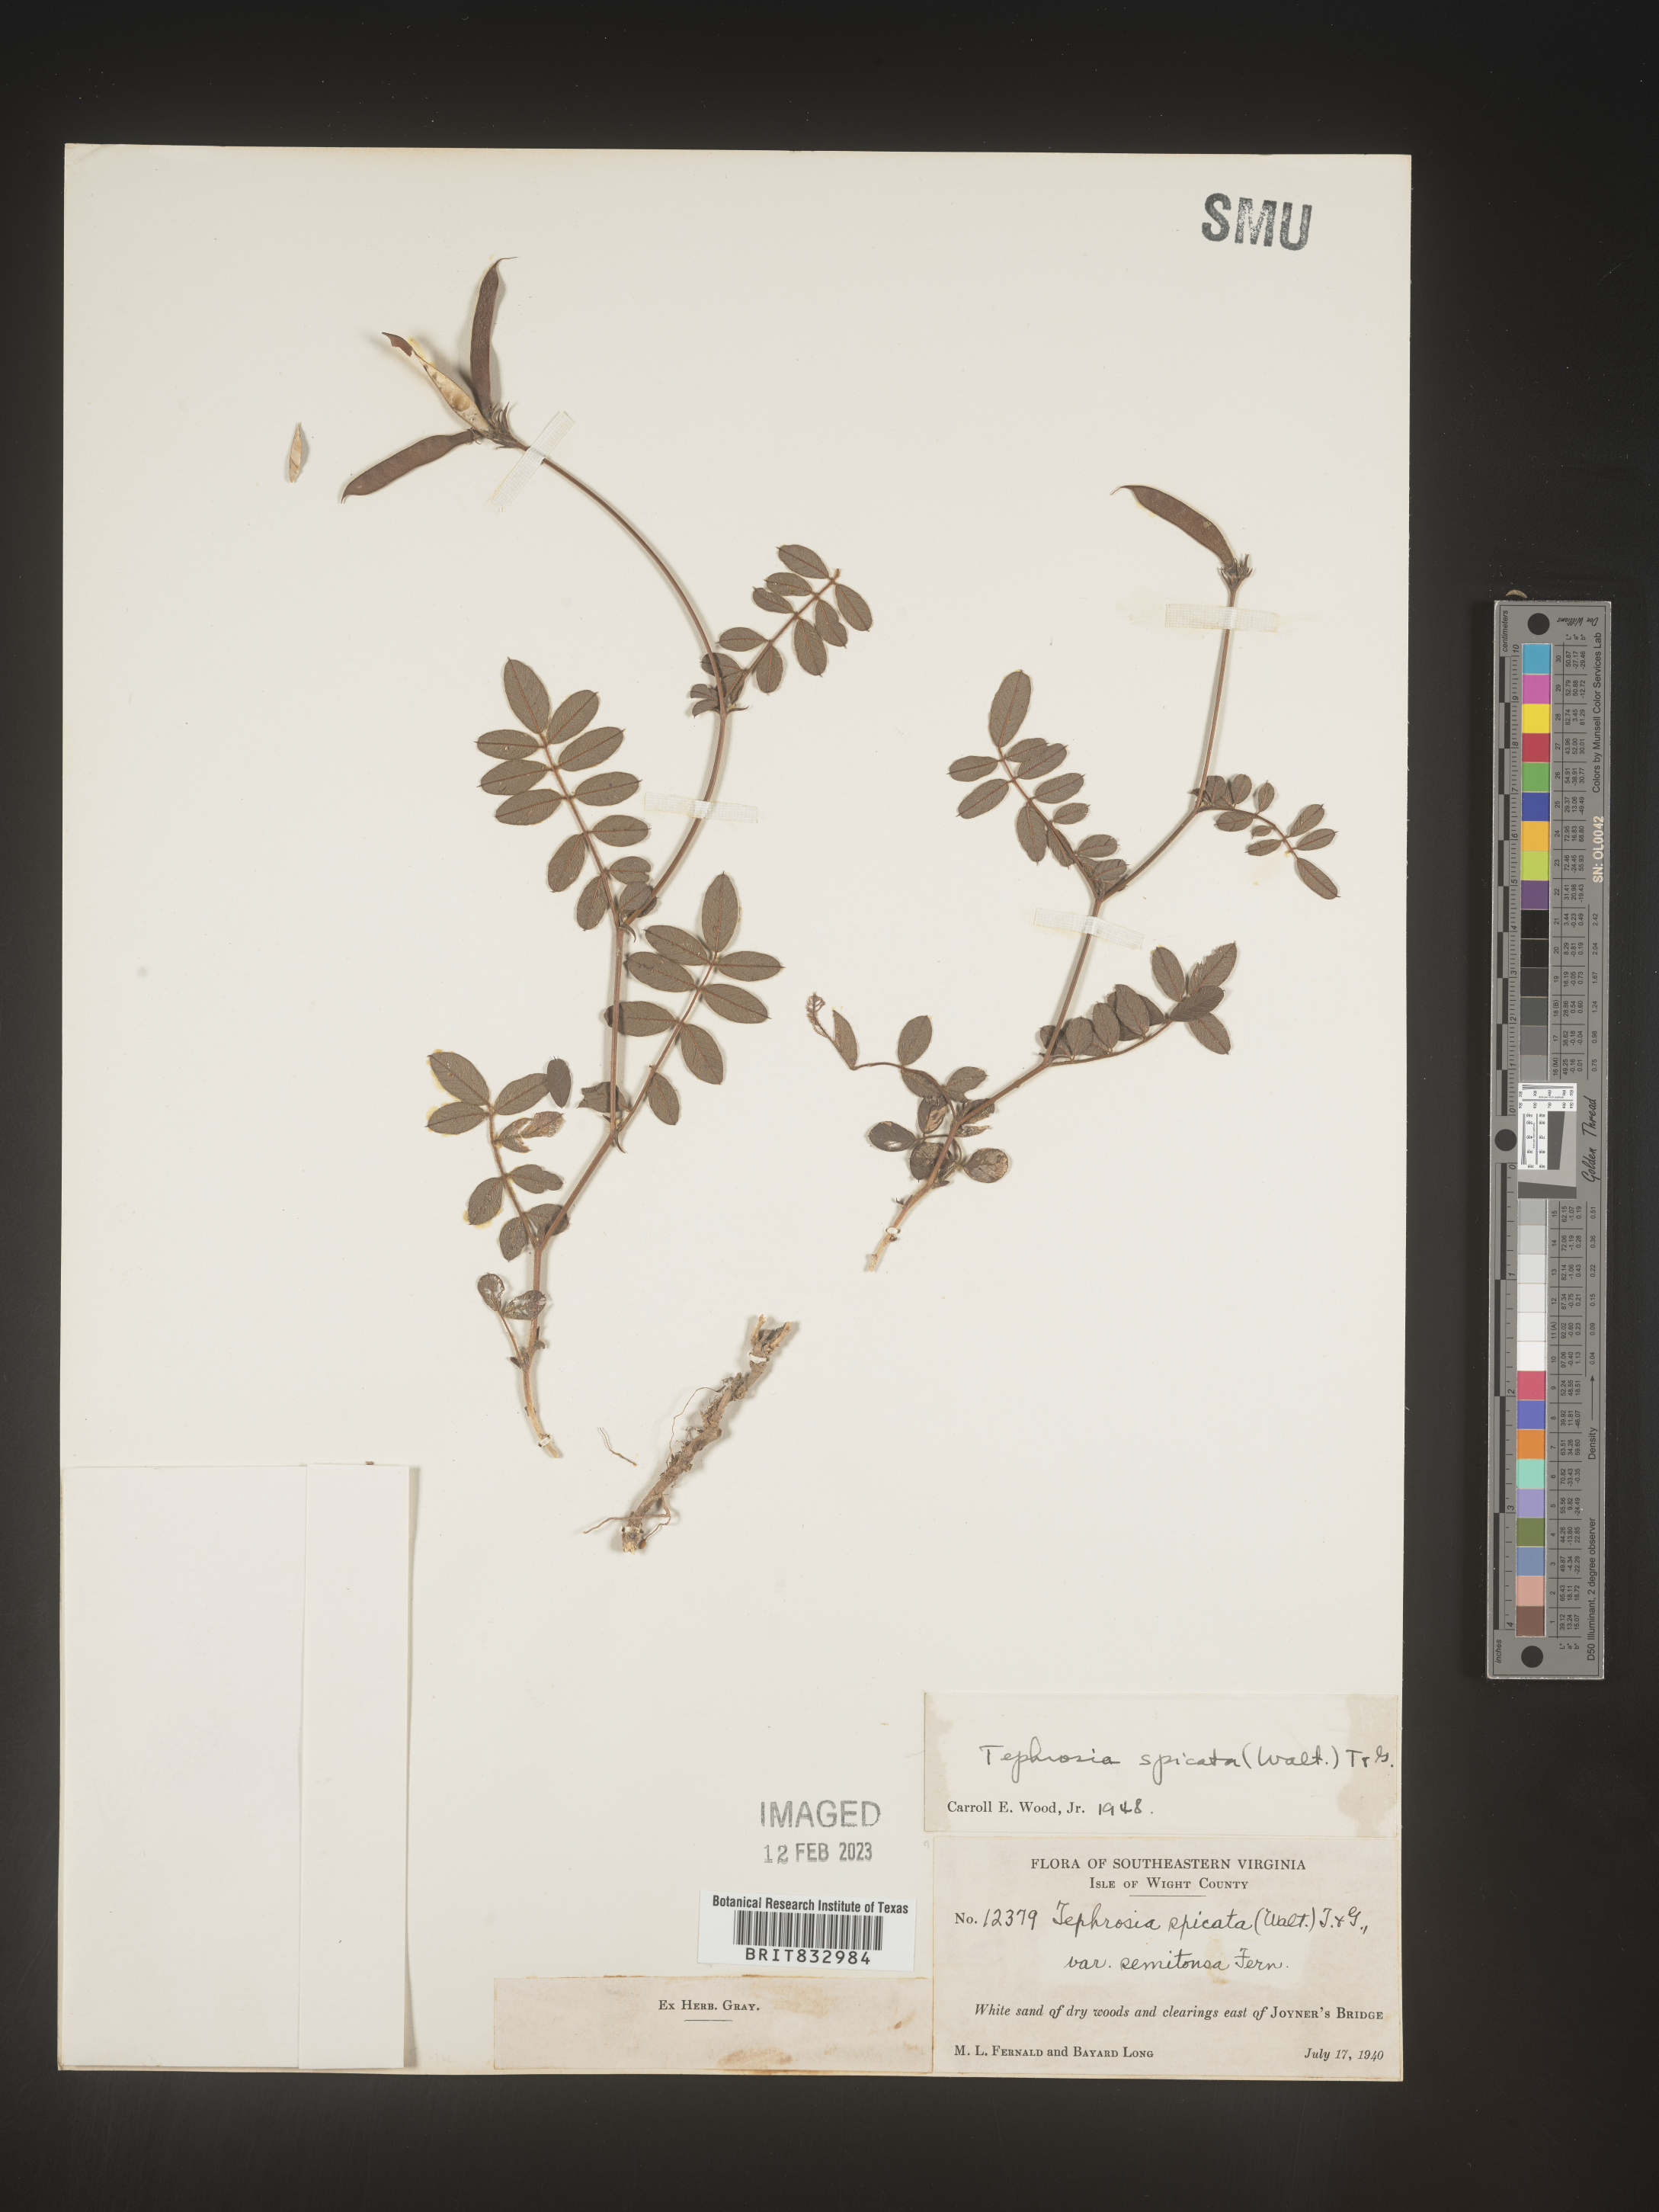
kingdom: Plantae
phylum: Tracheophyta
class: Magnoliopsida
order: Fabales
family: Fabaceae
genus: Tephrosia
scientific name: Tephrosia spicata
